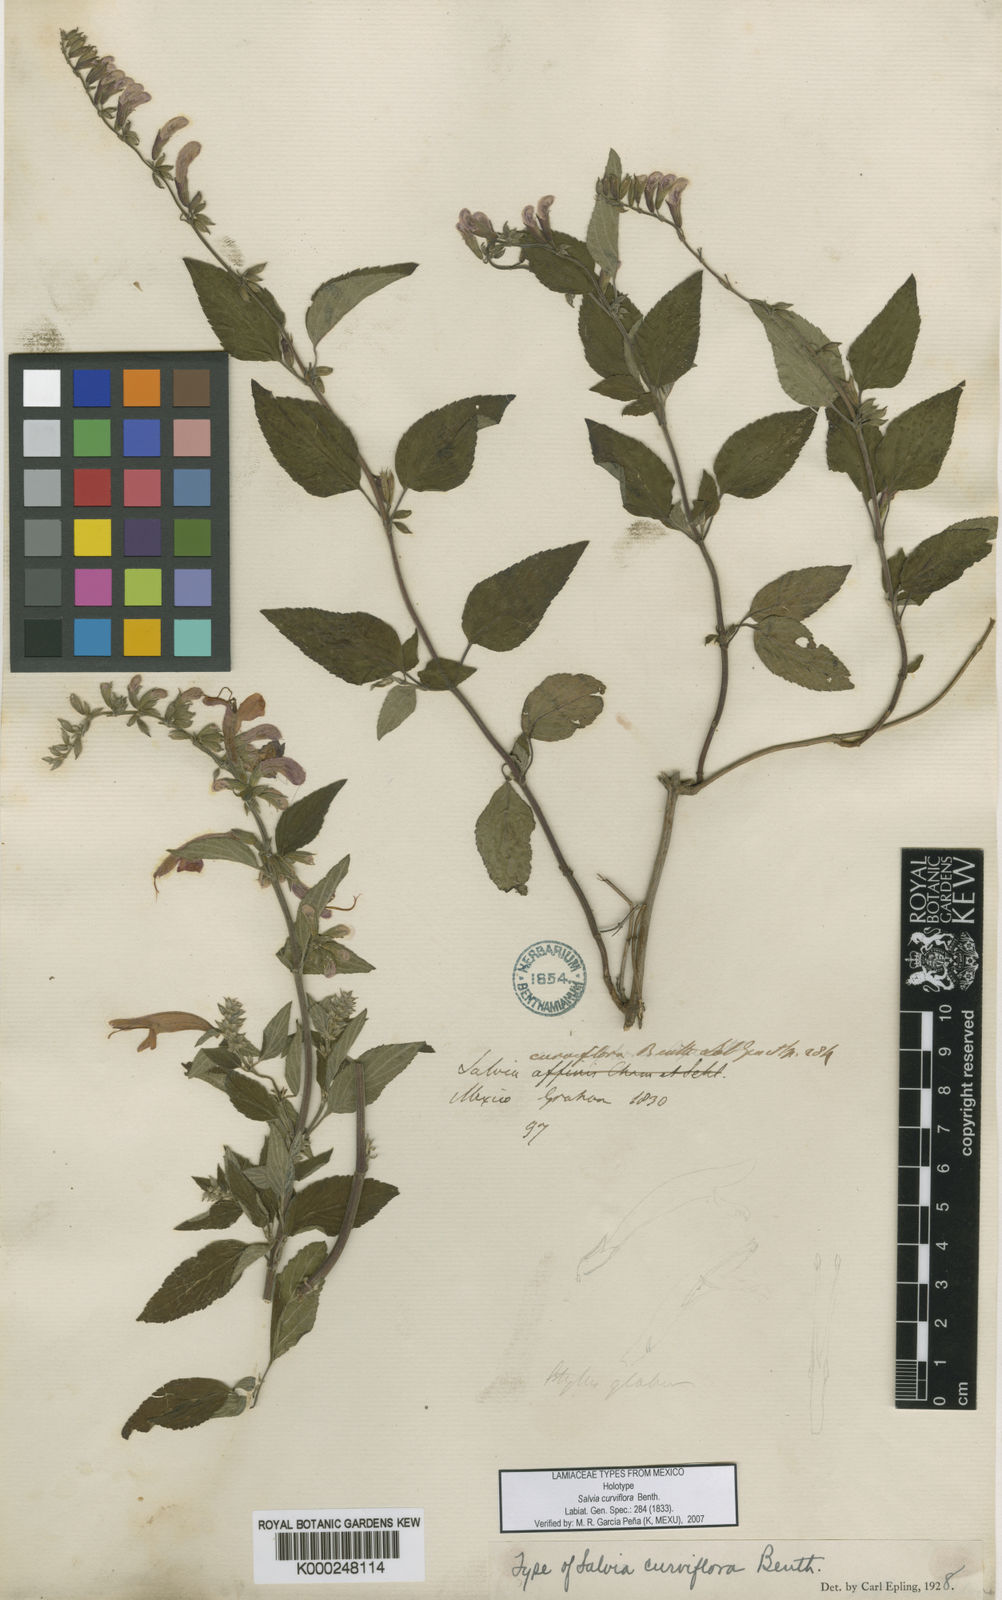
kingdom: Plantae
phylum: Tracheophyta
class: Magnoliopsida
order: Lamiales
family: Lamiaceae
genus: Salvia
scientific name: Salvia curviflora
